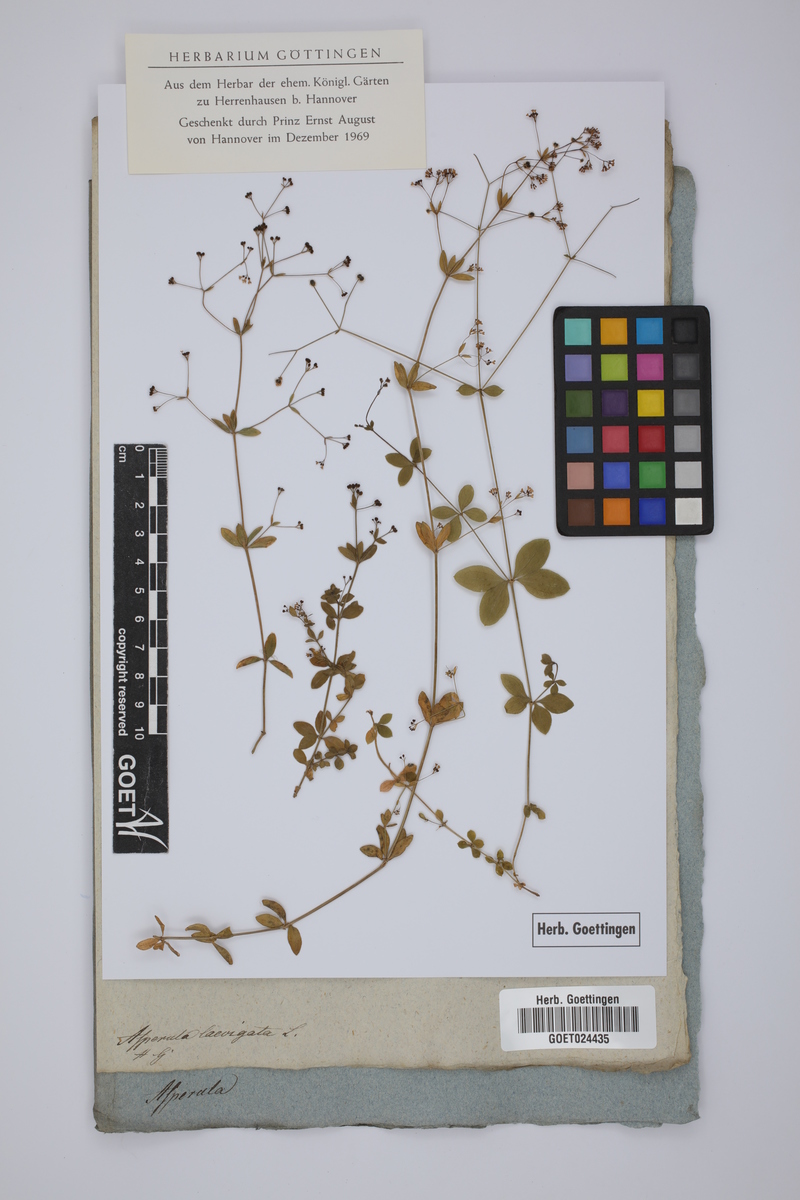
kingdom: Plantae
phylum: Tracheophyta
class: Magnoliopsida
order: Gentianales
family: Rubiaceae
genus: Asperula
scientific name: Asperula laevigata
